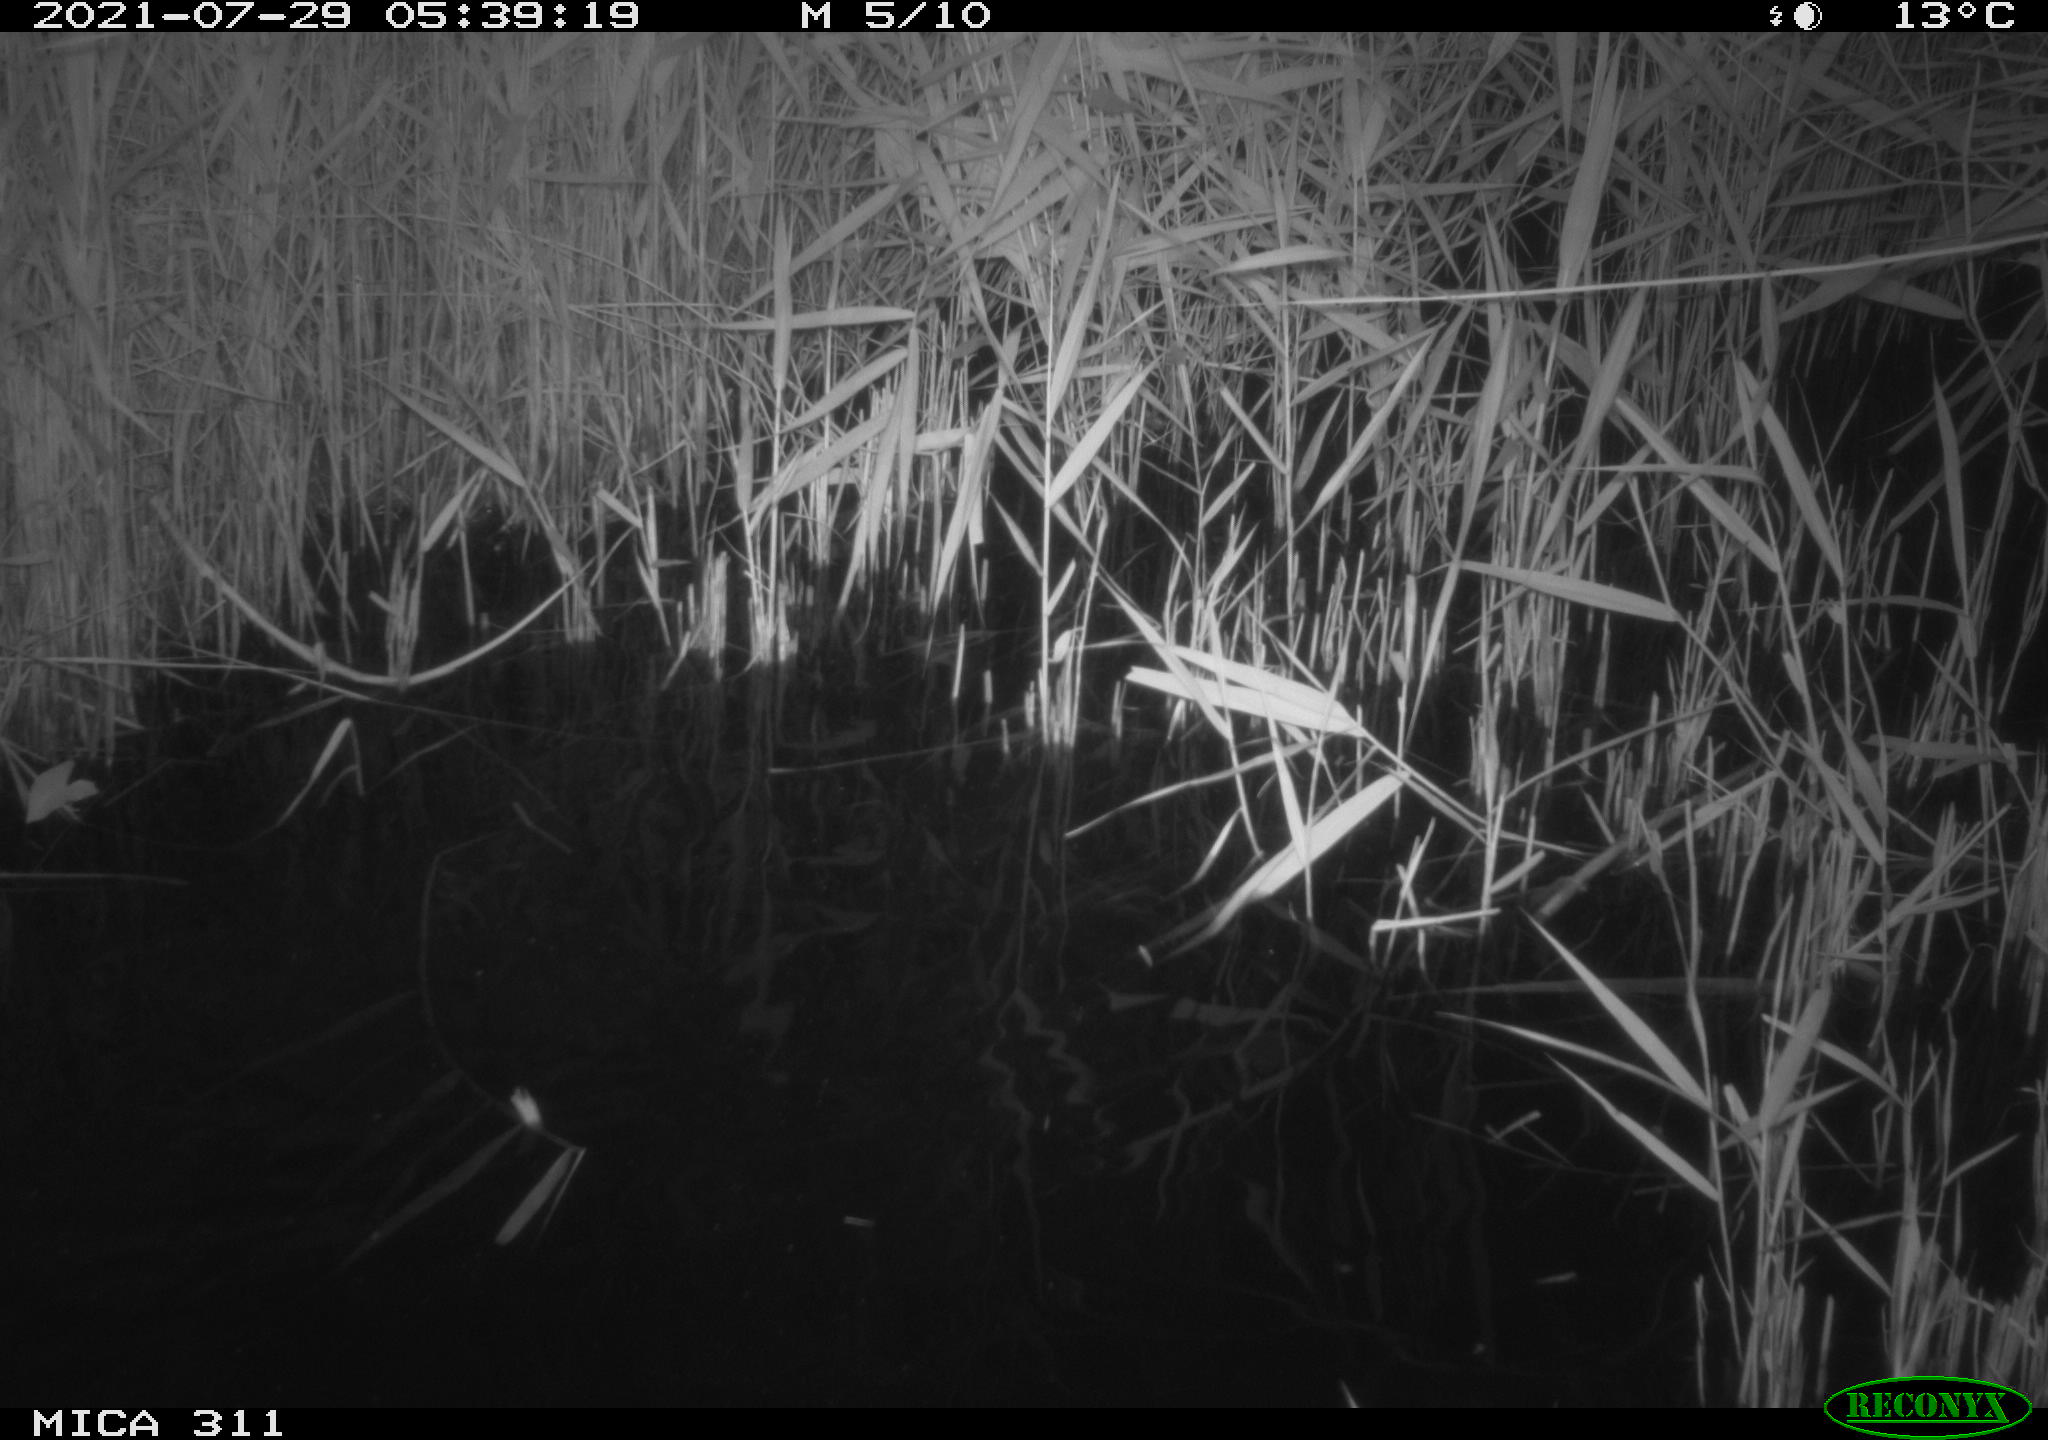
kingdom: Animalia
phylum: Chordata
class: Mammalia
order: Rodentia
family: Muridae
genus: Rattus
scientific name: Rattus norvegicus
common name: Brown rat
